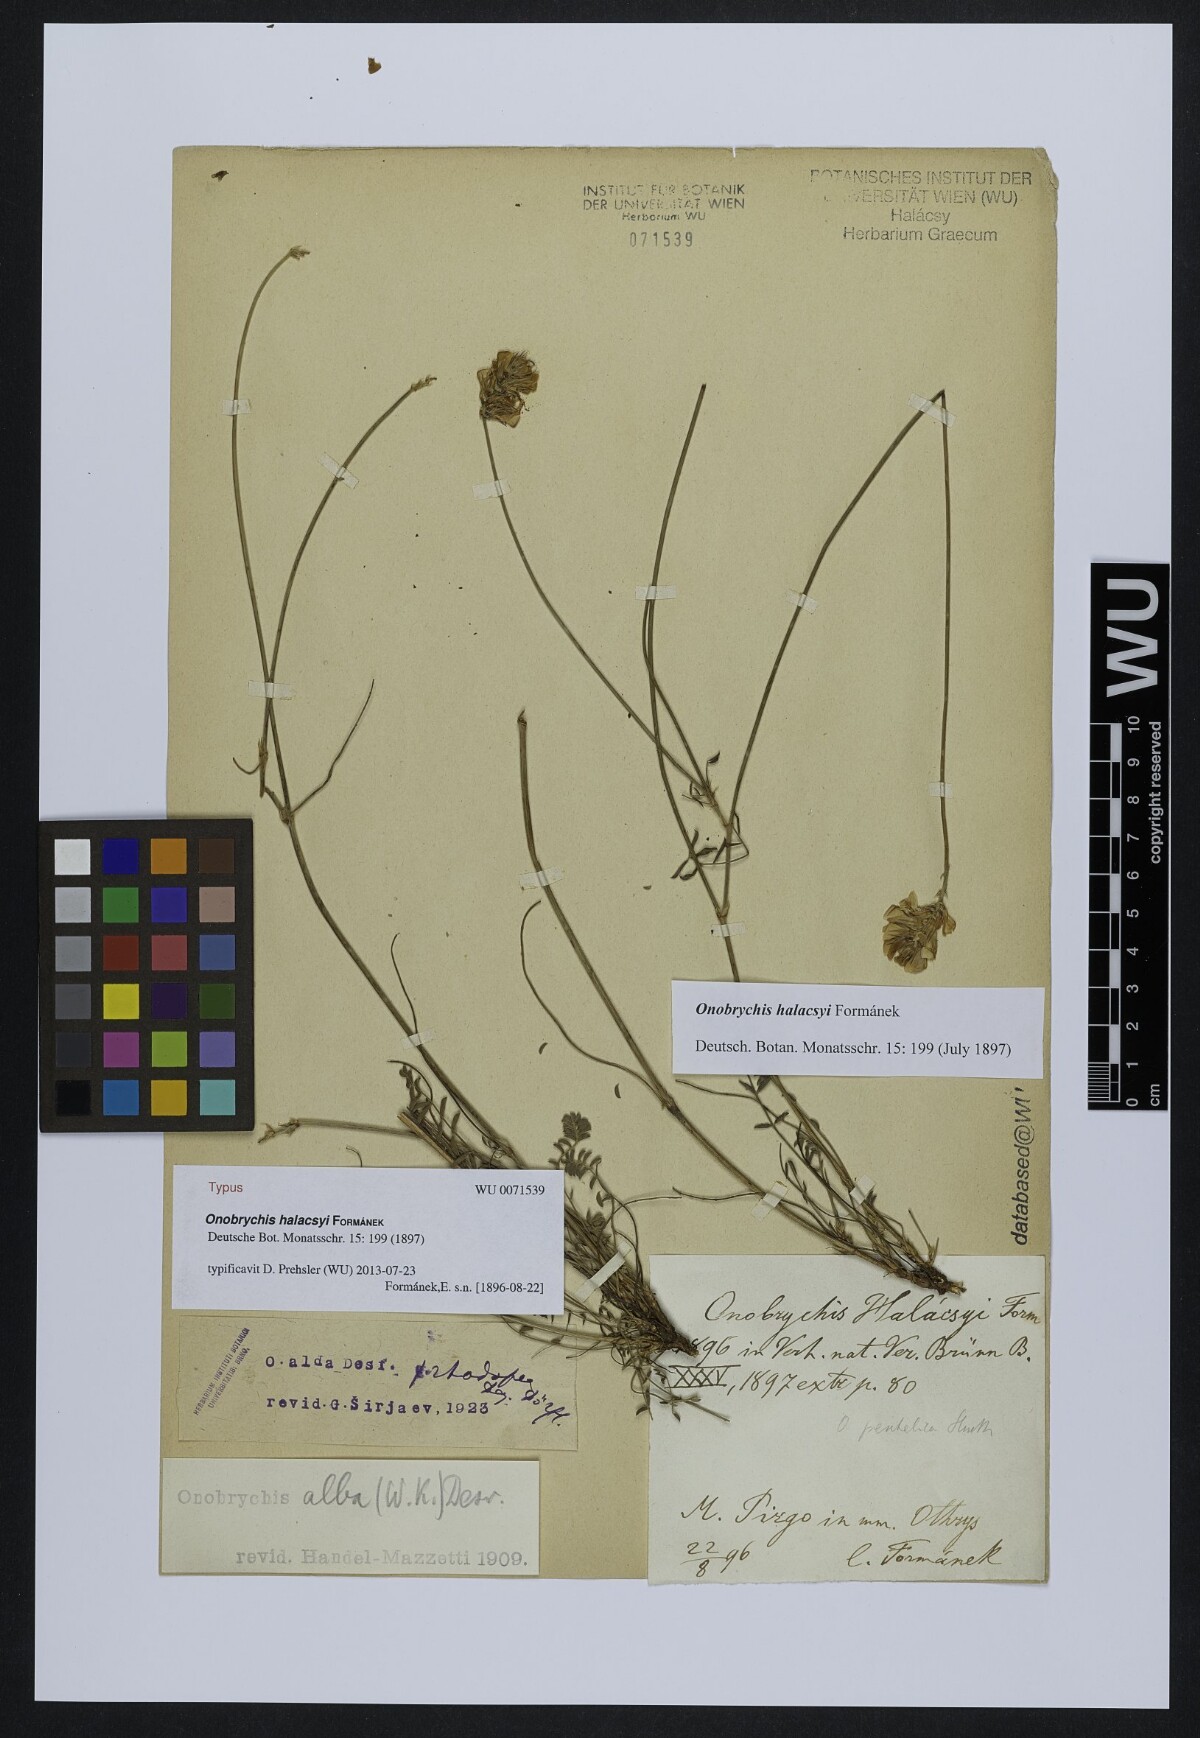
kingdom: Plantae
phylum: Tracheophyta
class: Magnoliopsida
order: Fabales
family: Fabaceae
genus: Onobrychis
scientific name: Onobrychis alba
